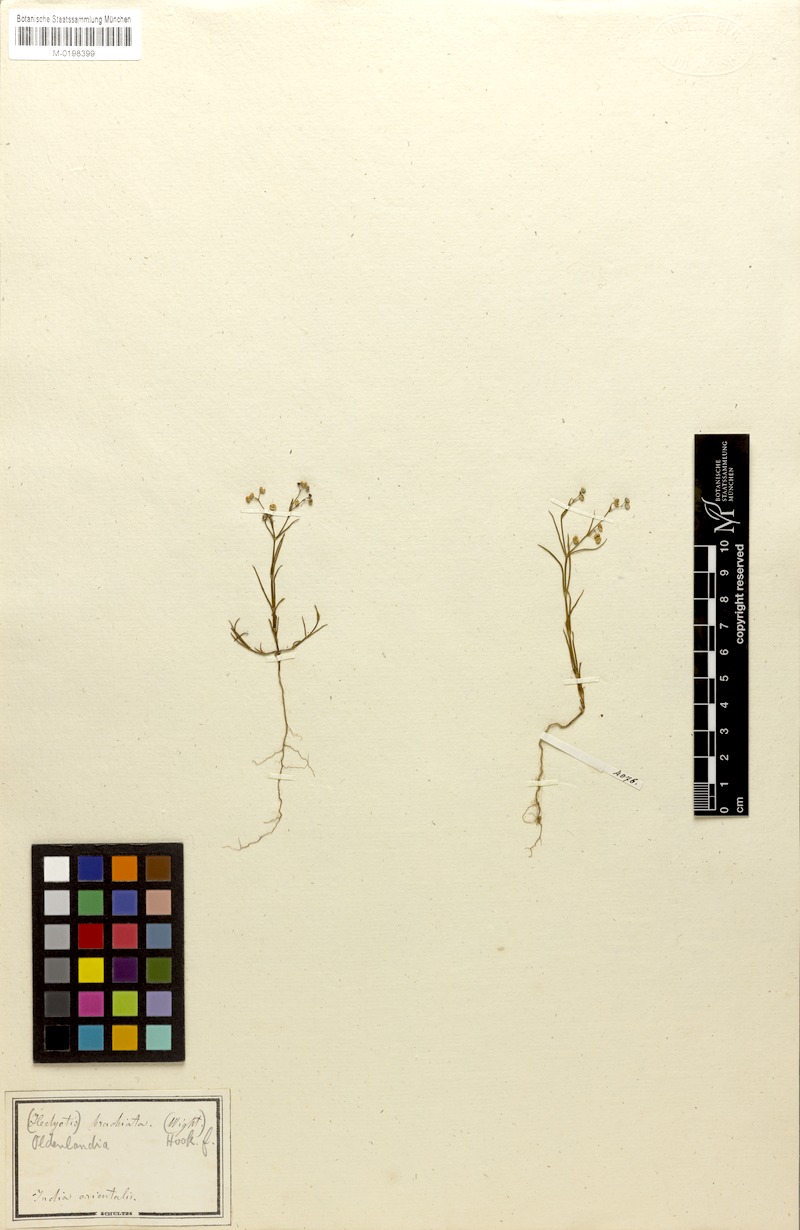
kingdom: Plantae
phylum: Tracheophyta
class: Magnoliopsida
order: Gentianales
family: Rubiaceae
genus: Kohautia
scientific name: Kohautia aspera
